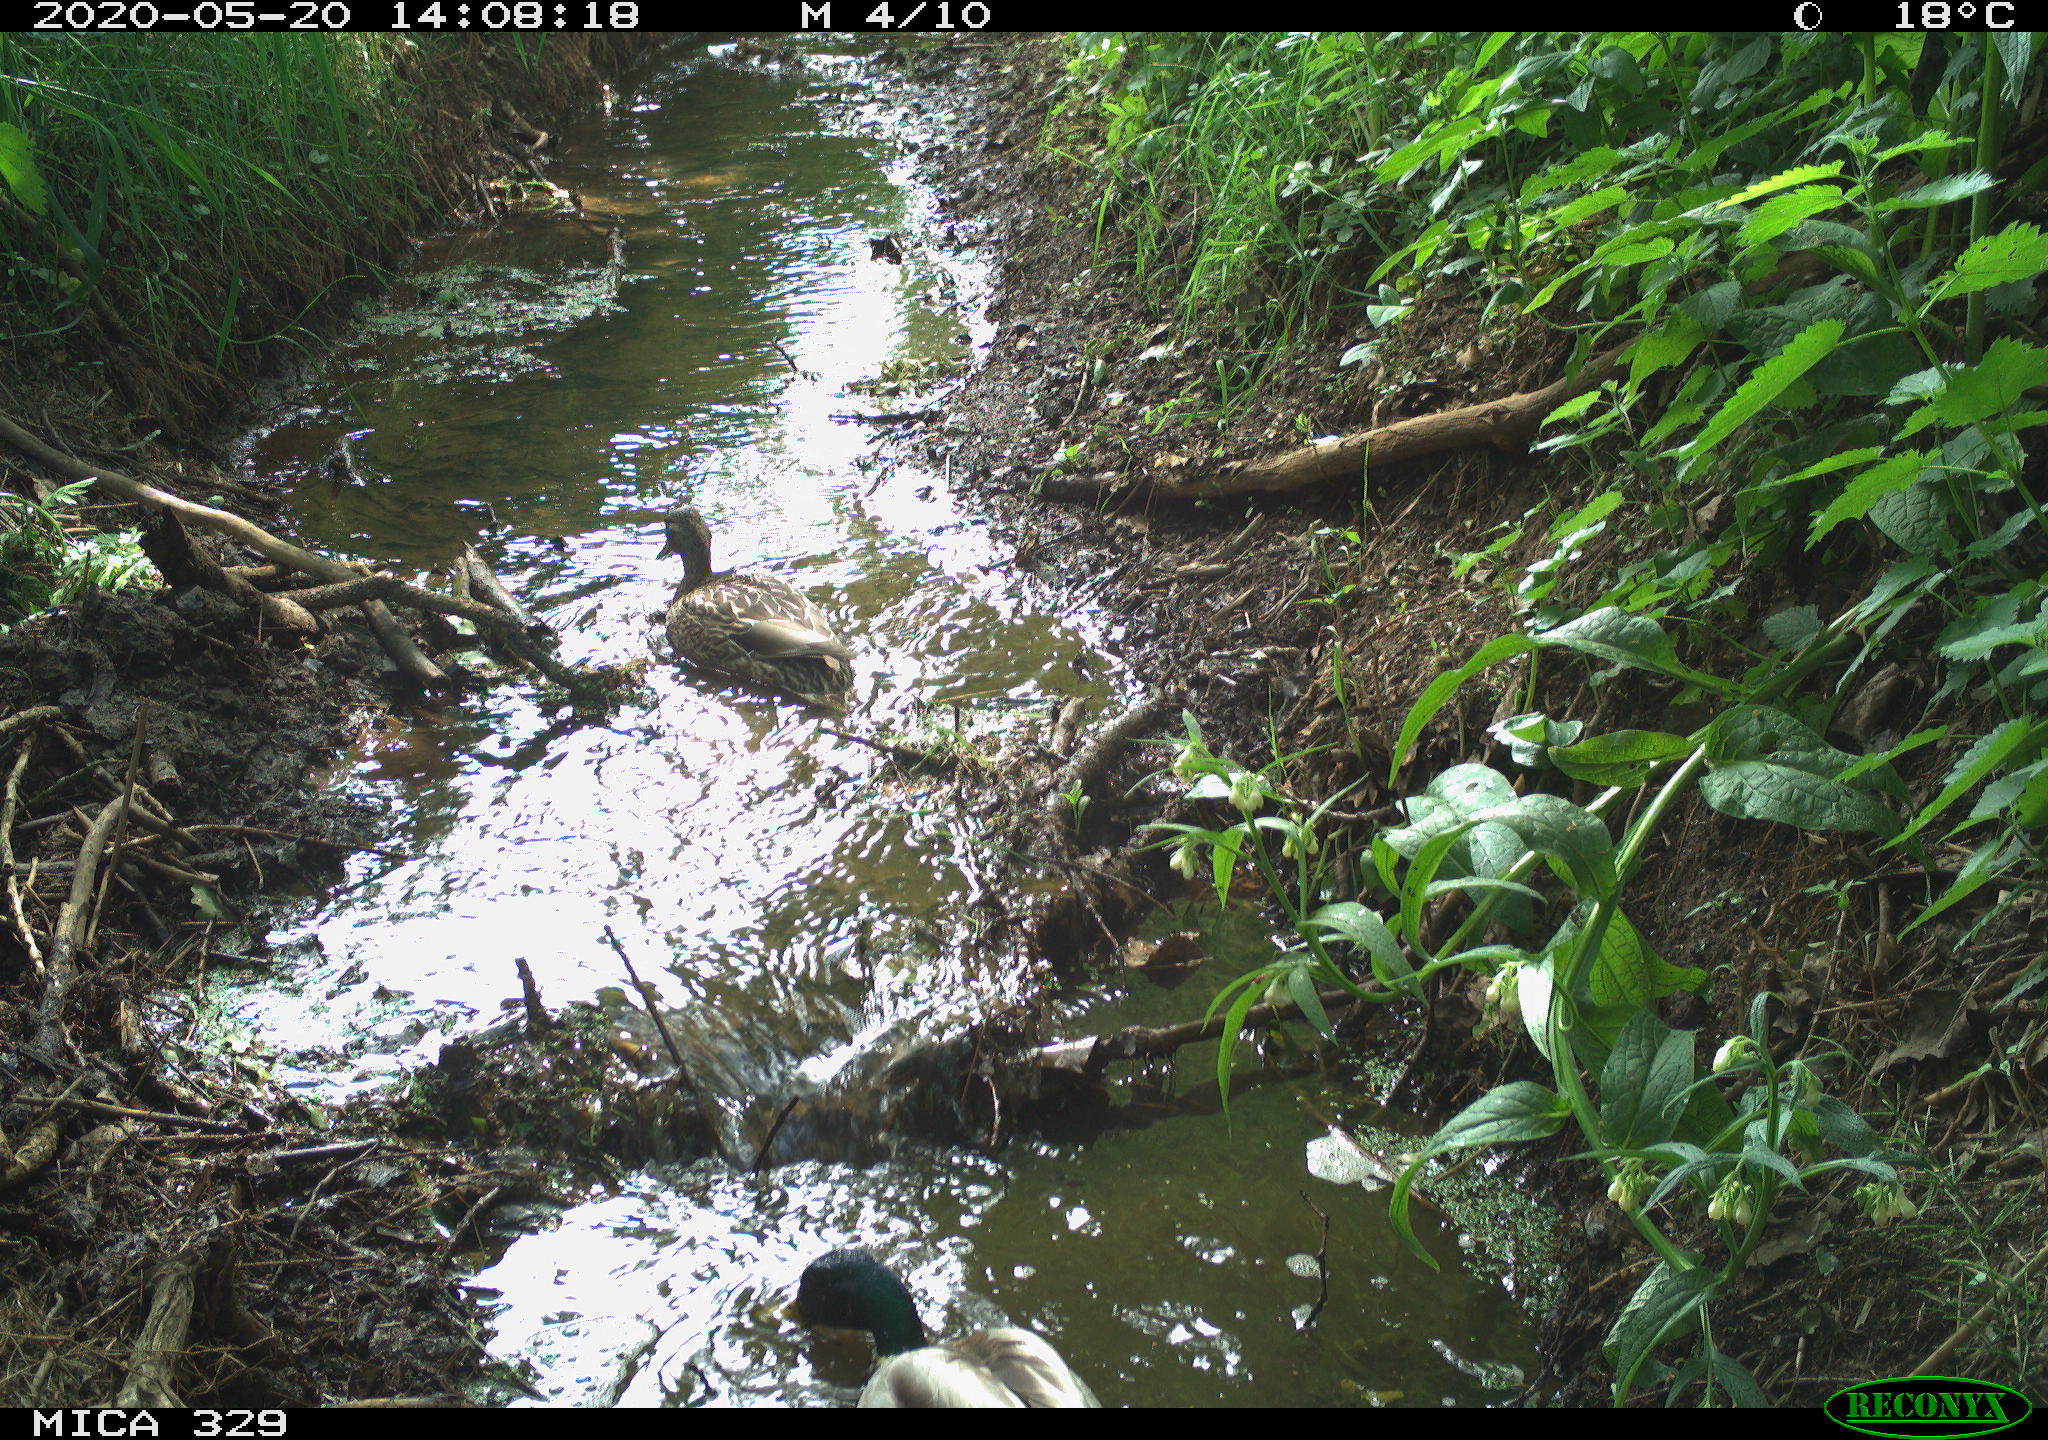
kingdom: Animalia
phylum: Chordata
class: Aves
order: Anseriformes
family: Anatidae
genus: Anas
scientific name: Anas platyrhynchos
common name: Mallard
